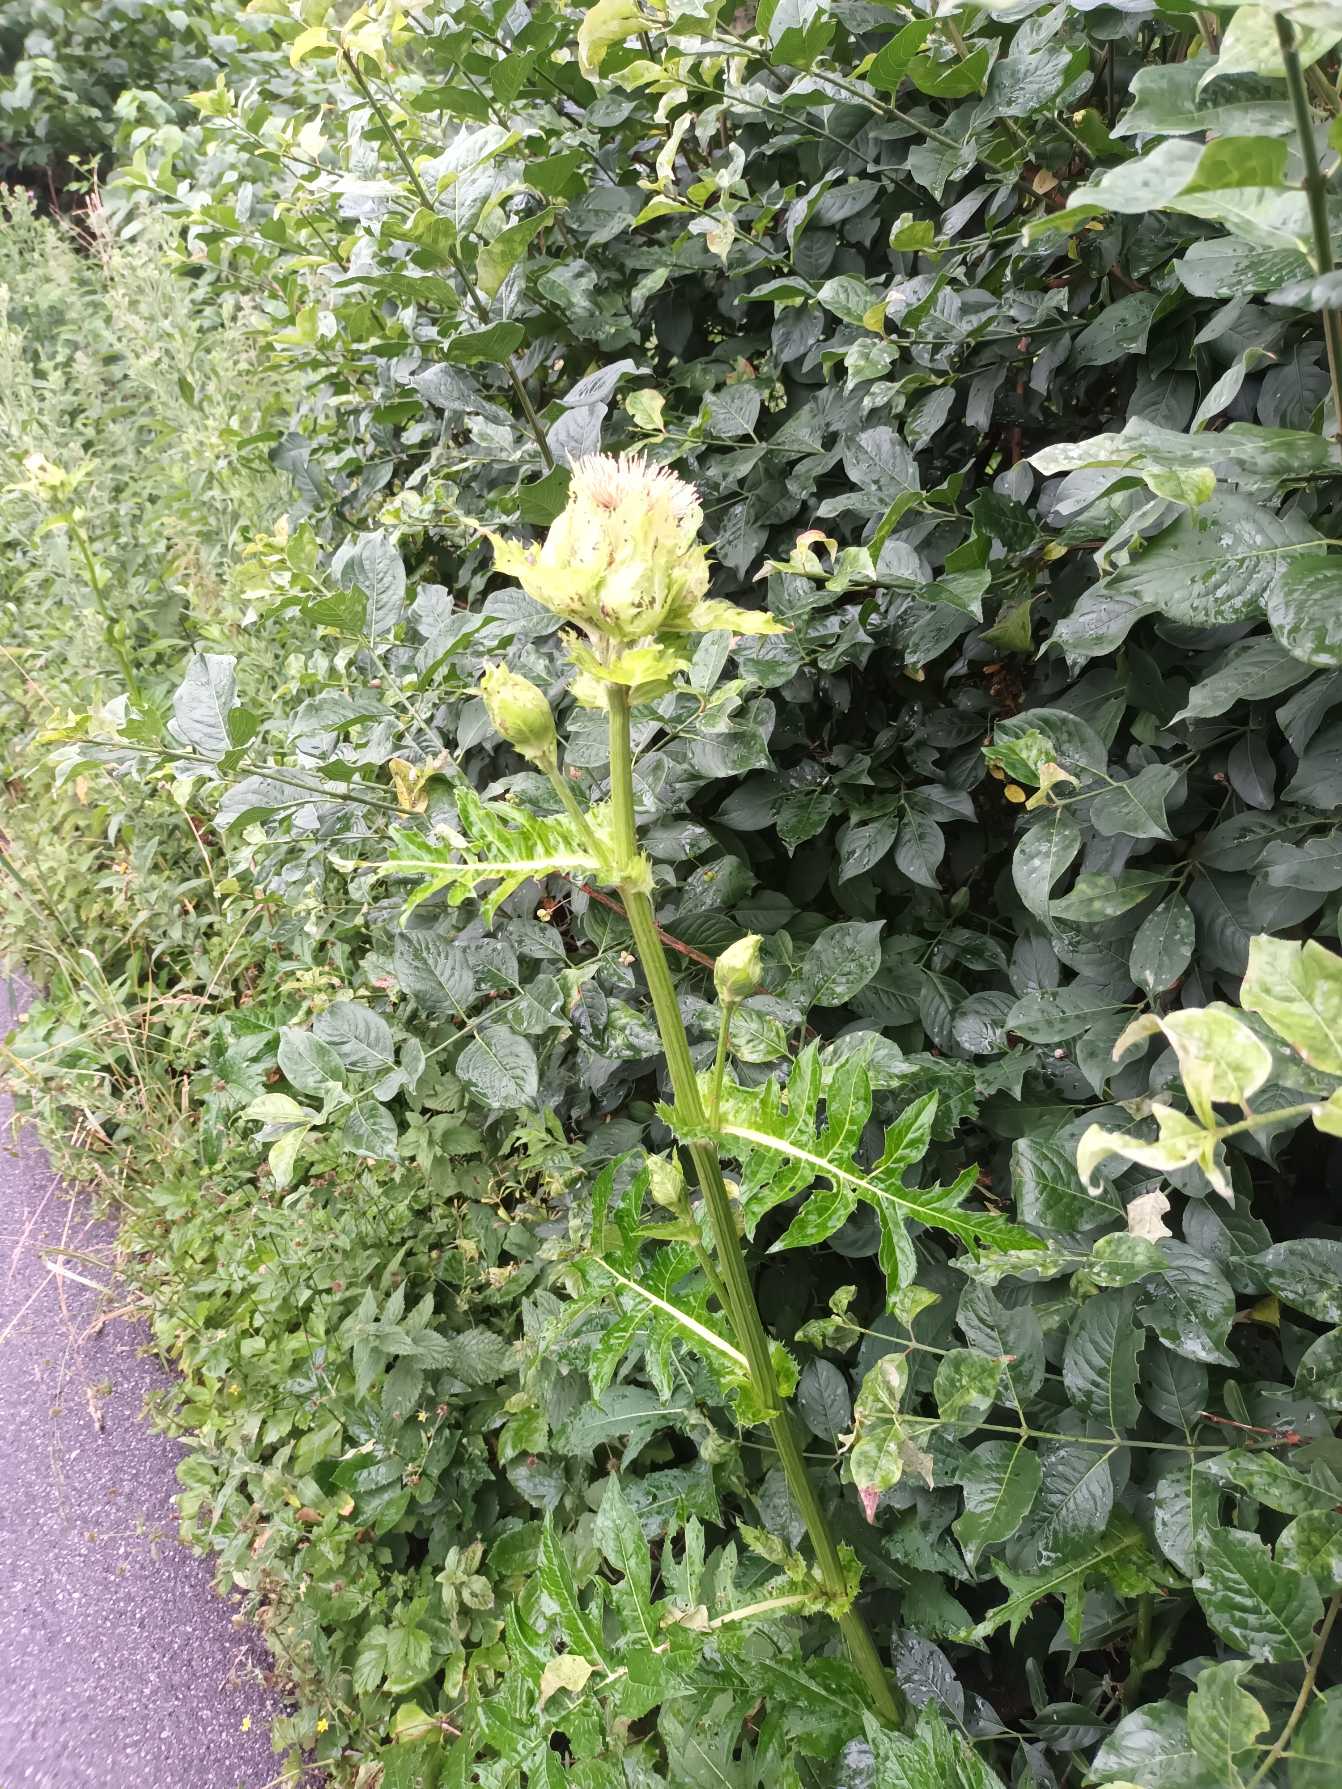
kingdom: Plantae
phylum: Tracheophyta
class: Magnoliopsida
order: Asterales
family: Asteraceae
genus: Cirsium
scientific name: Cirsium oleraceum
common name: Kål-tidsel
